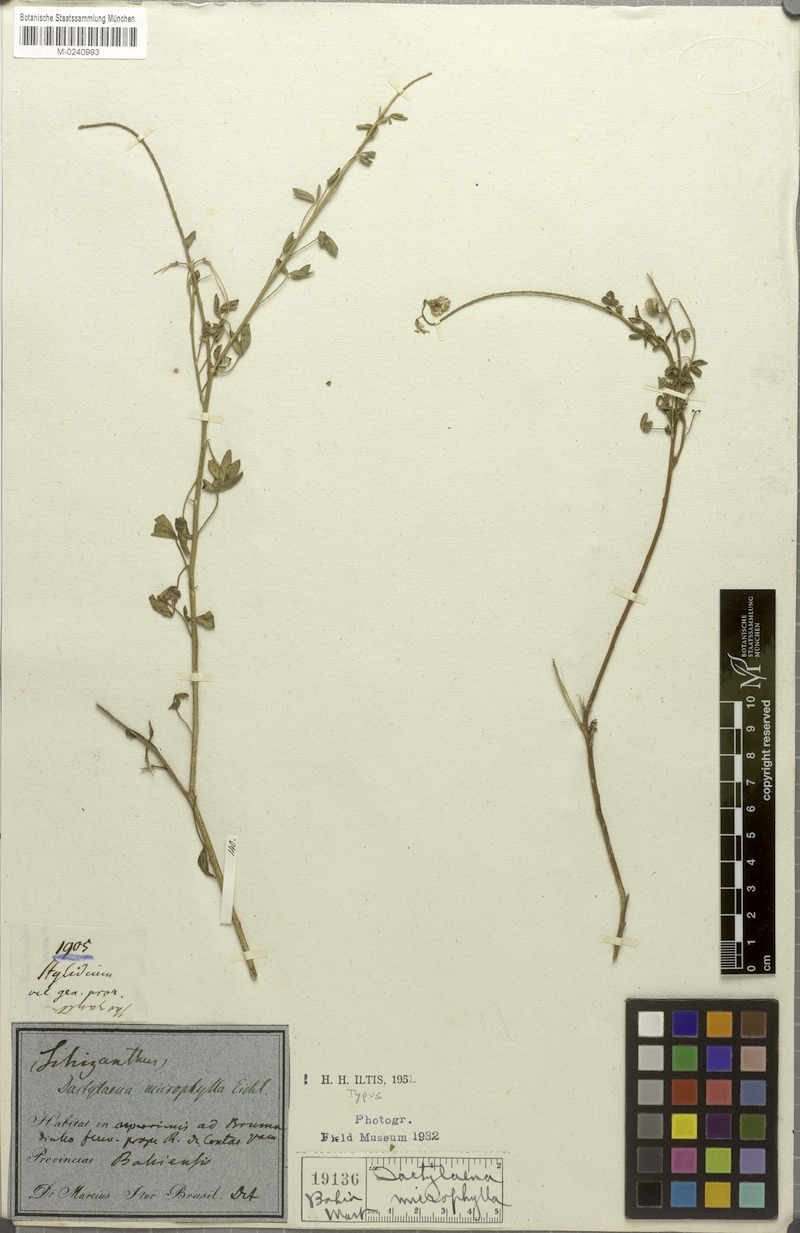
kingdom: Plantae
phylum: Tracheophyta
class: Magnoliopsida
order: Brassicales
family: Cleomaceae
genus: Dactylaena
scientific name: Dactylaena microphylla
